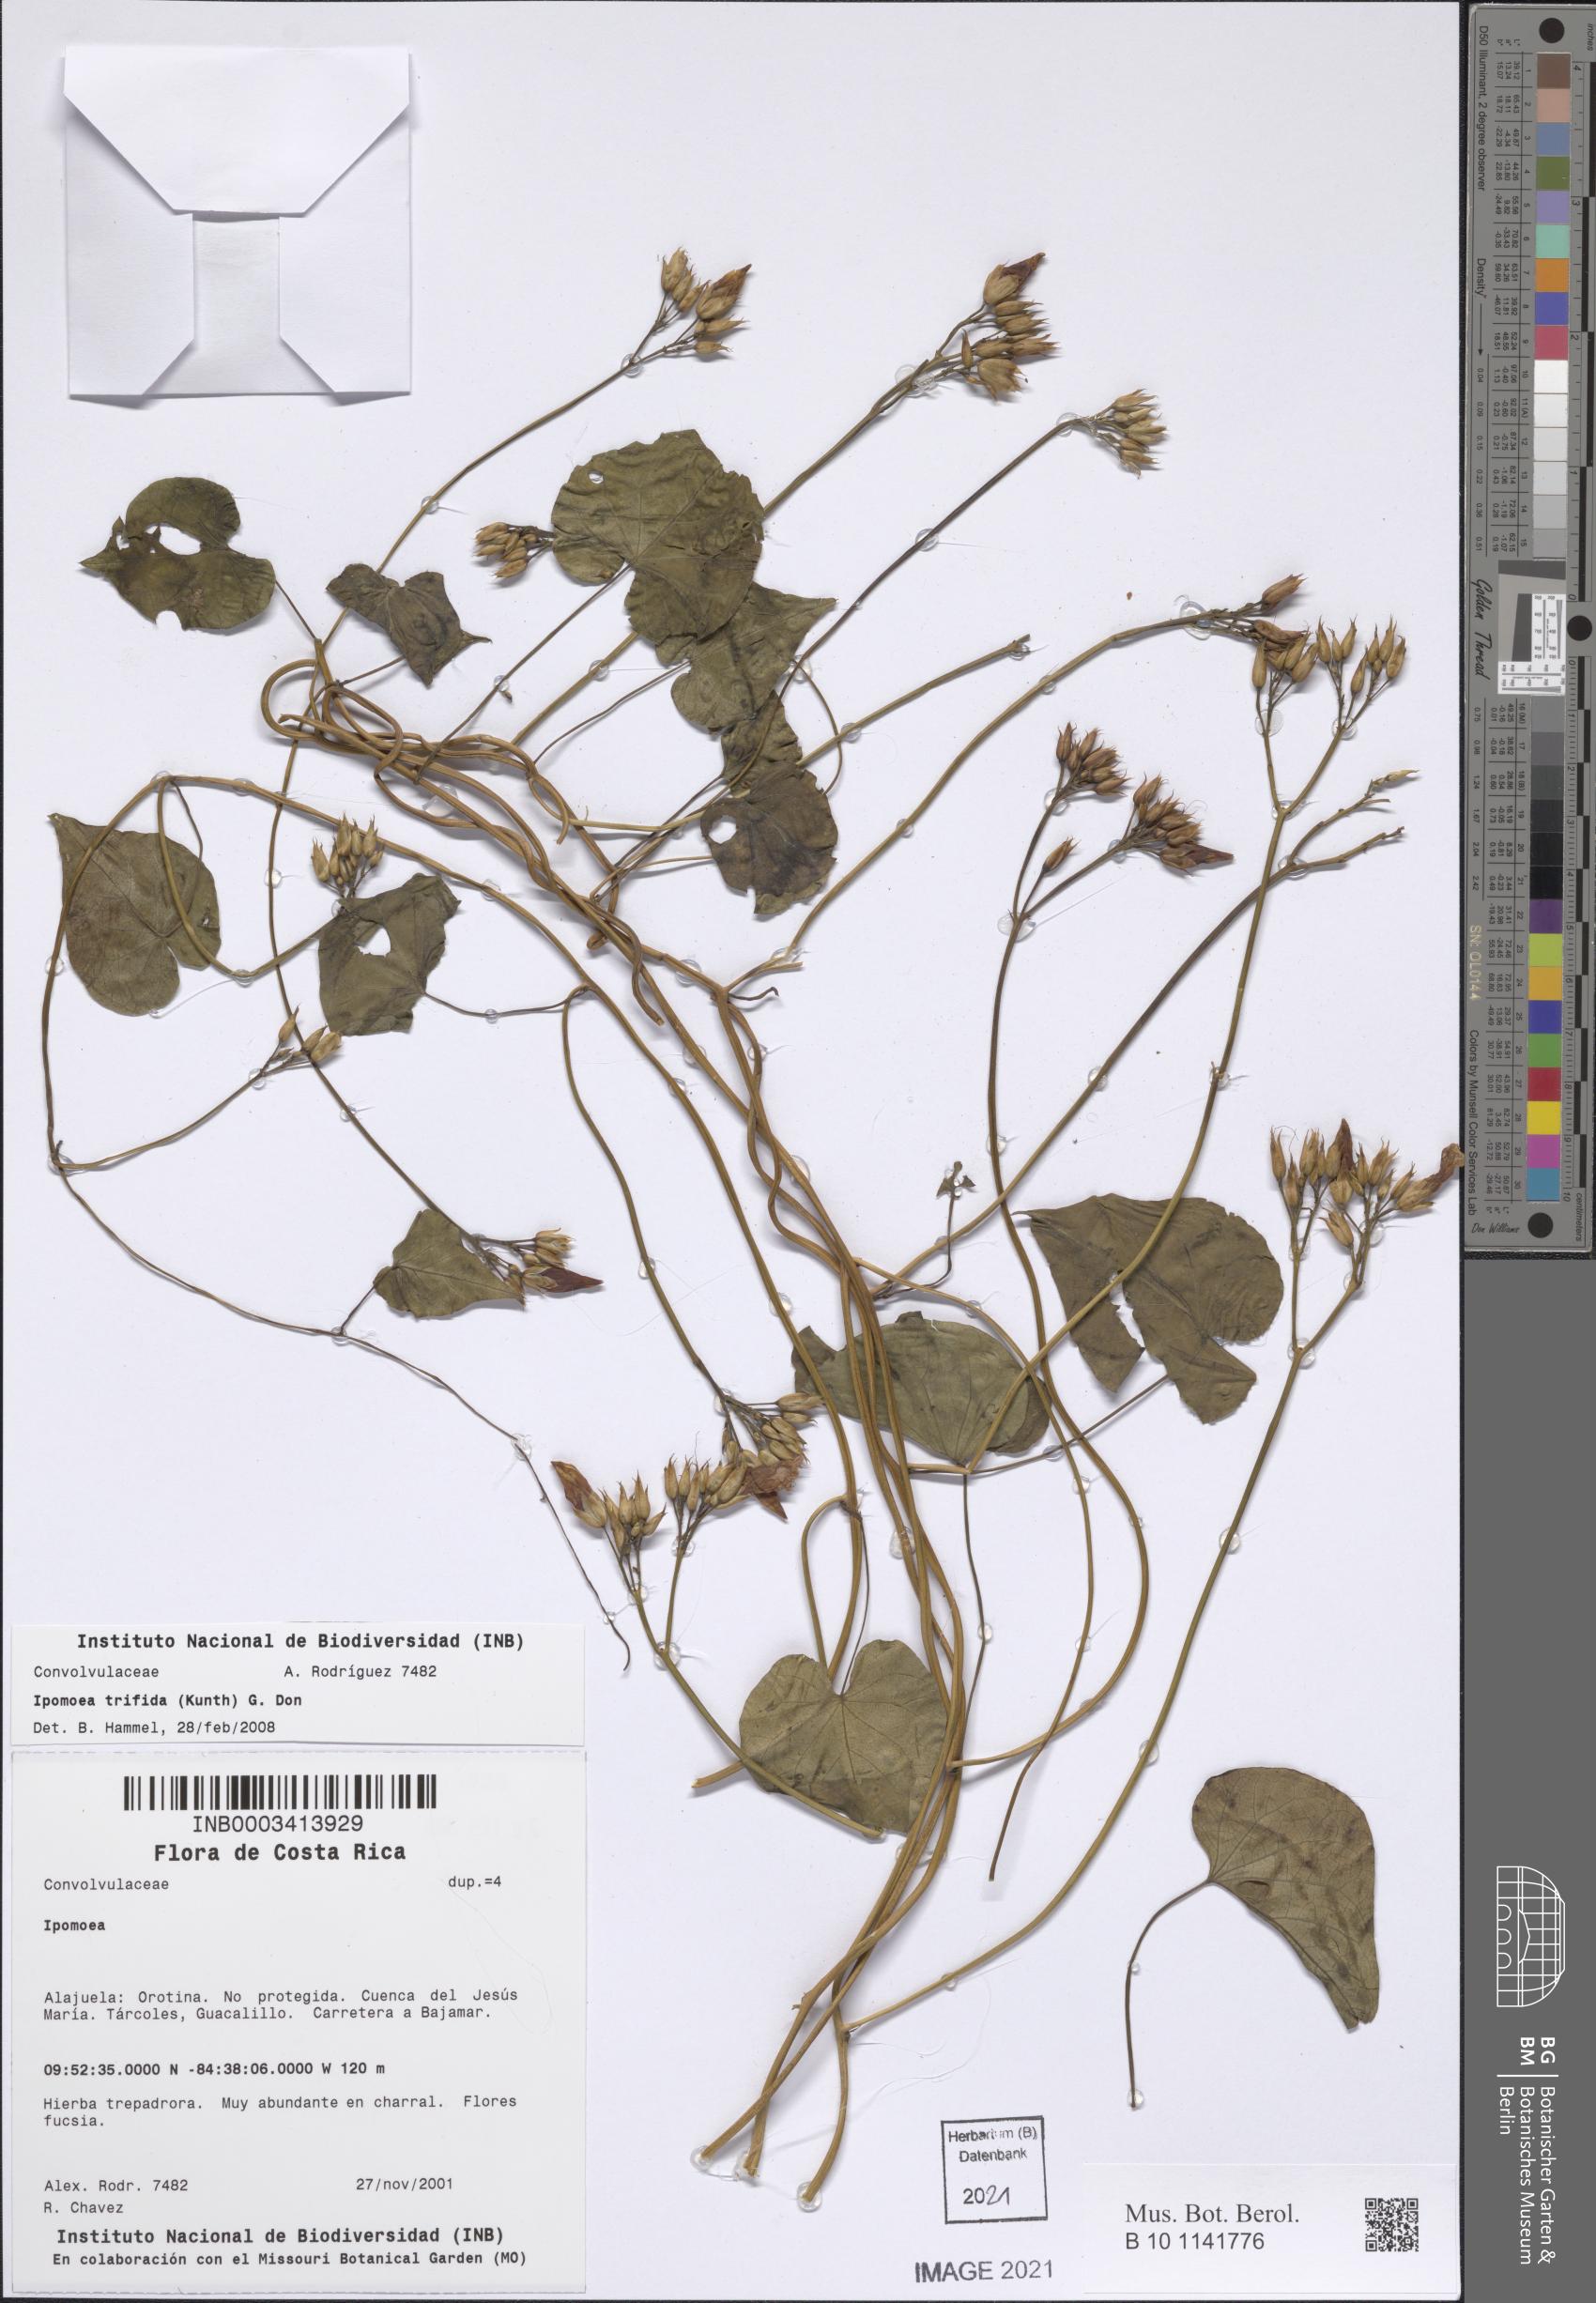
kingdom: Plantae
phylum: Tracheophyta
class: Magnoliopsida
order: Solanales
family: Convolvulaceae
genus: Ipomoea
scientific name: Ipomoea trifida
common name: Cotton morningglory
